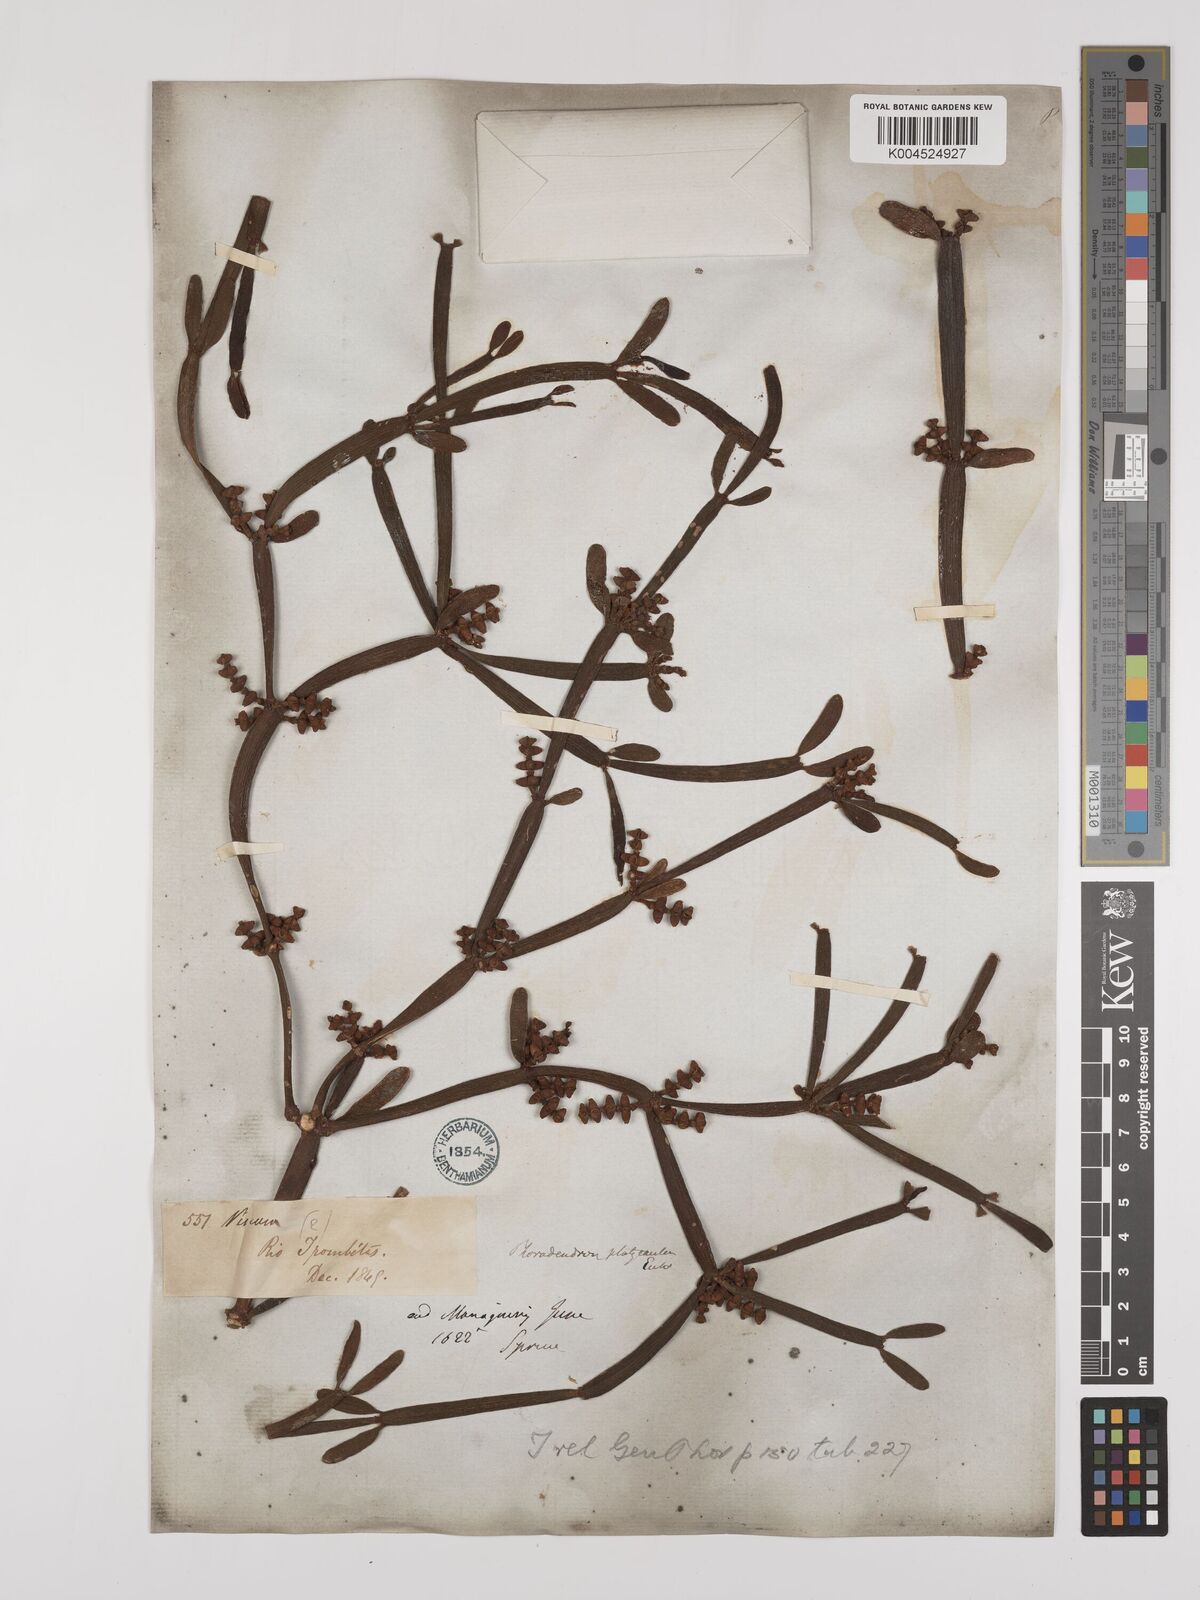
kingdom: Plantae
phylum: Tracheophyta
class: Magnoliopsida
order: Santalales
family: Viscaceae
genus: Phoradendron
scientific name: Phoradendron planiphyllum
